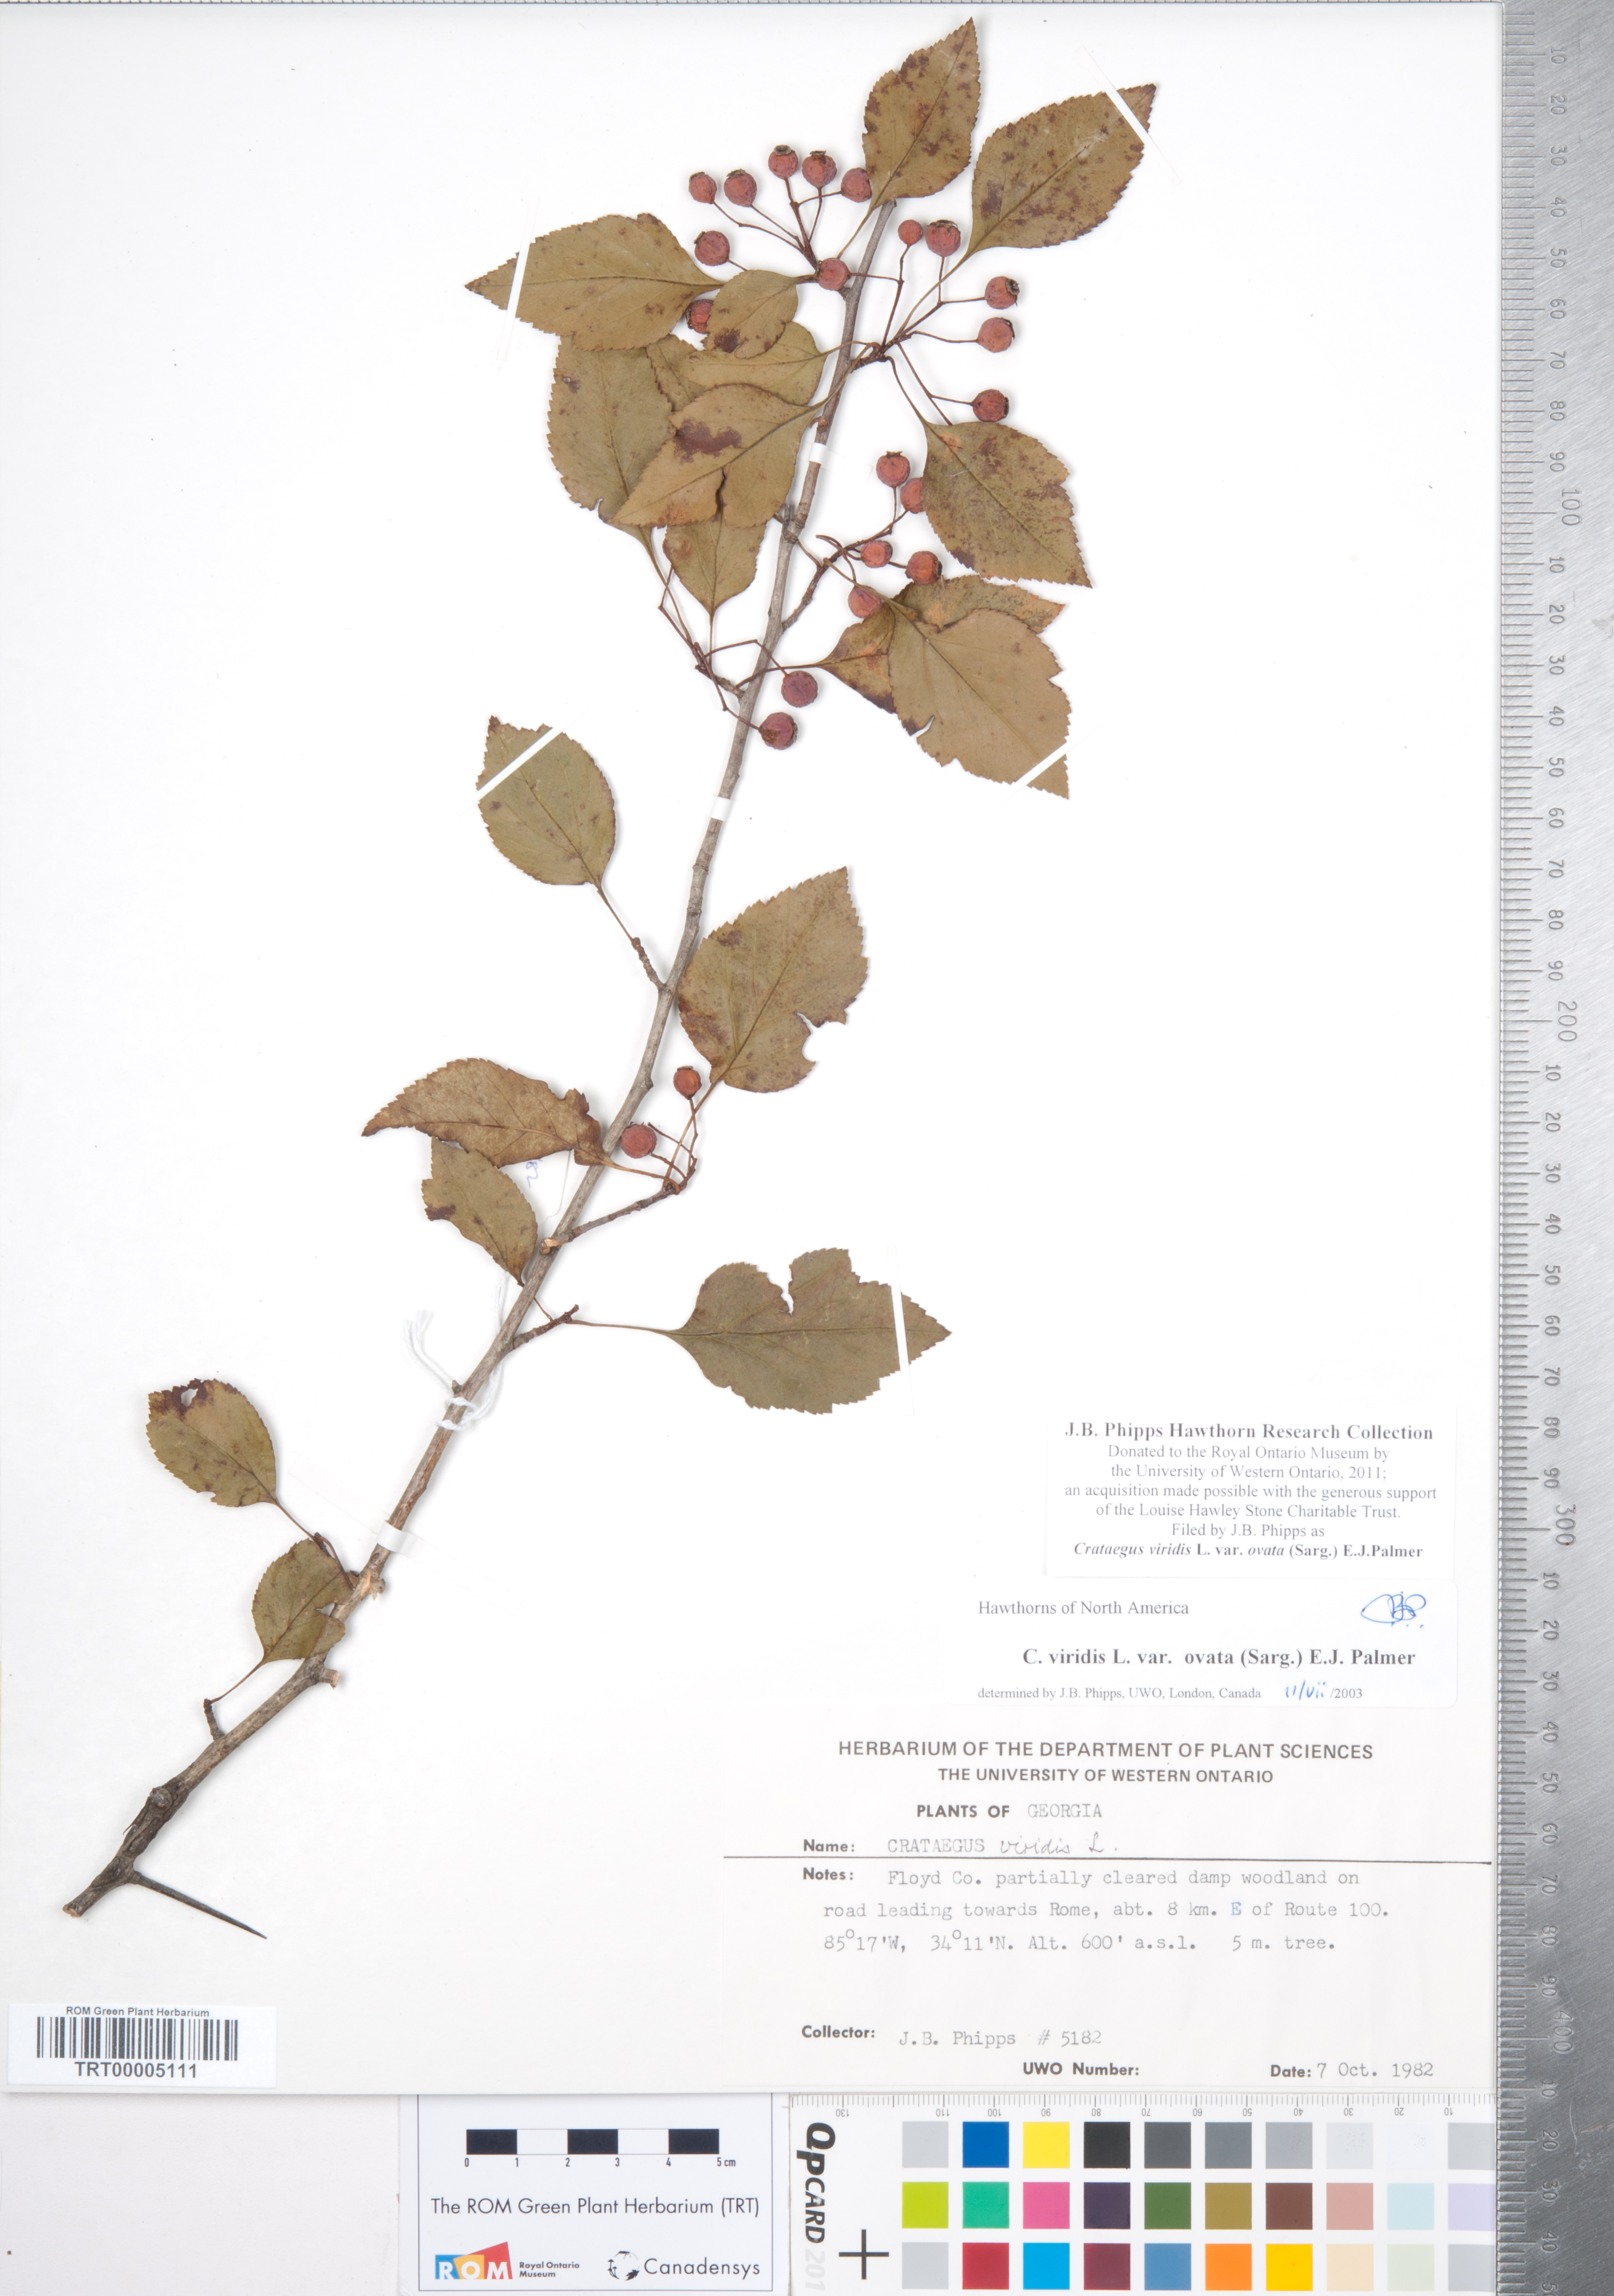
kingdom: Plantae
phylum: Tracheophyta
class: Magnoliopsida
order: Rosales
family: Rosaceae
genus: Crataegus
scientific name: Crataegus viridis
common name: Southernthorn
